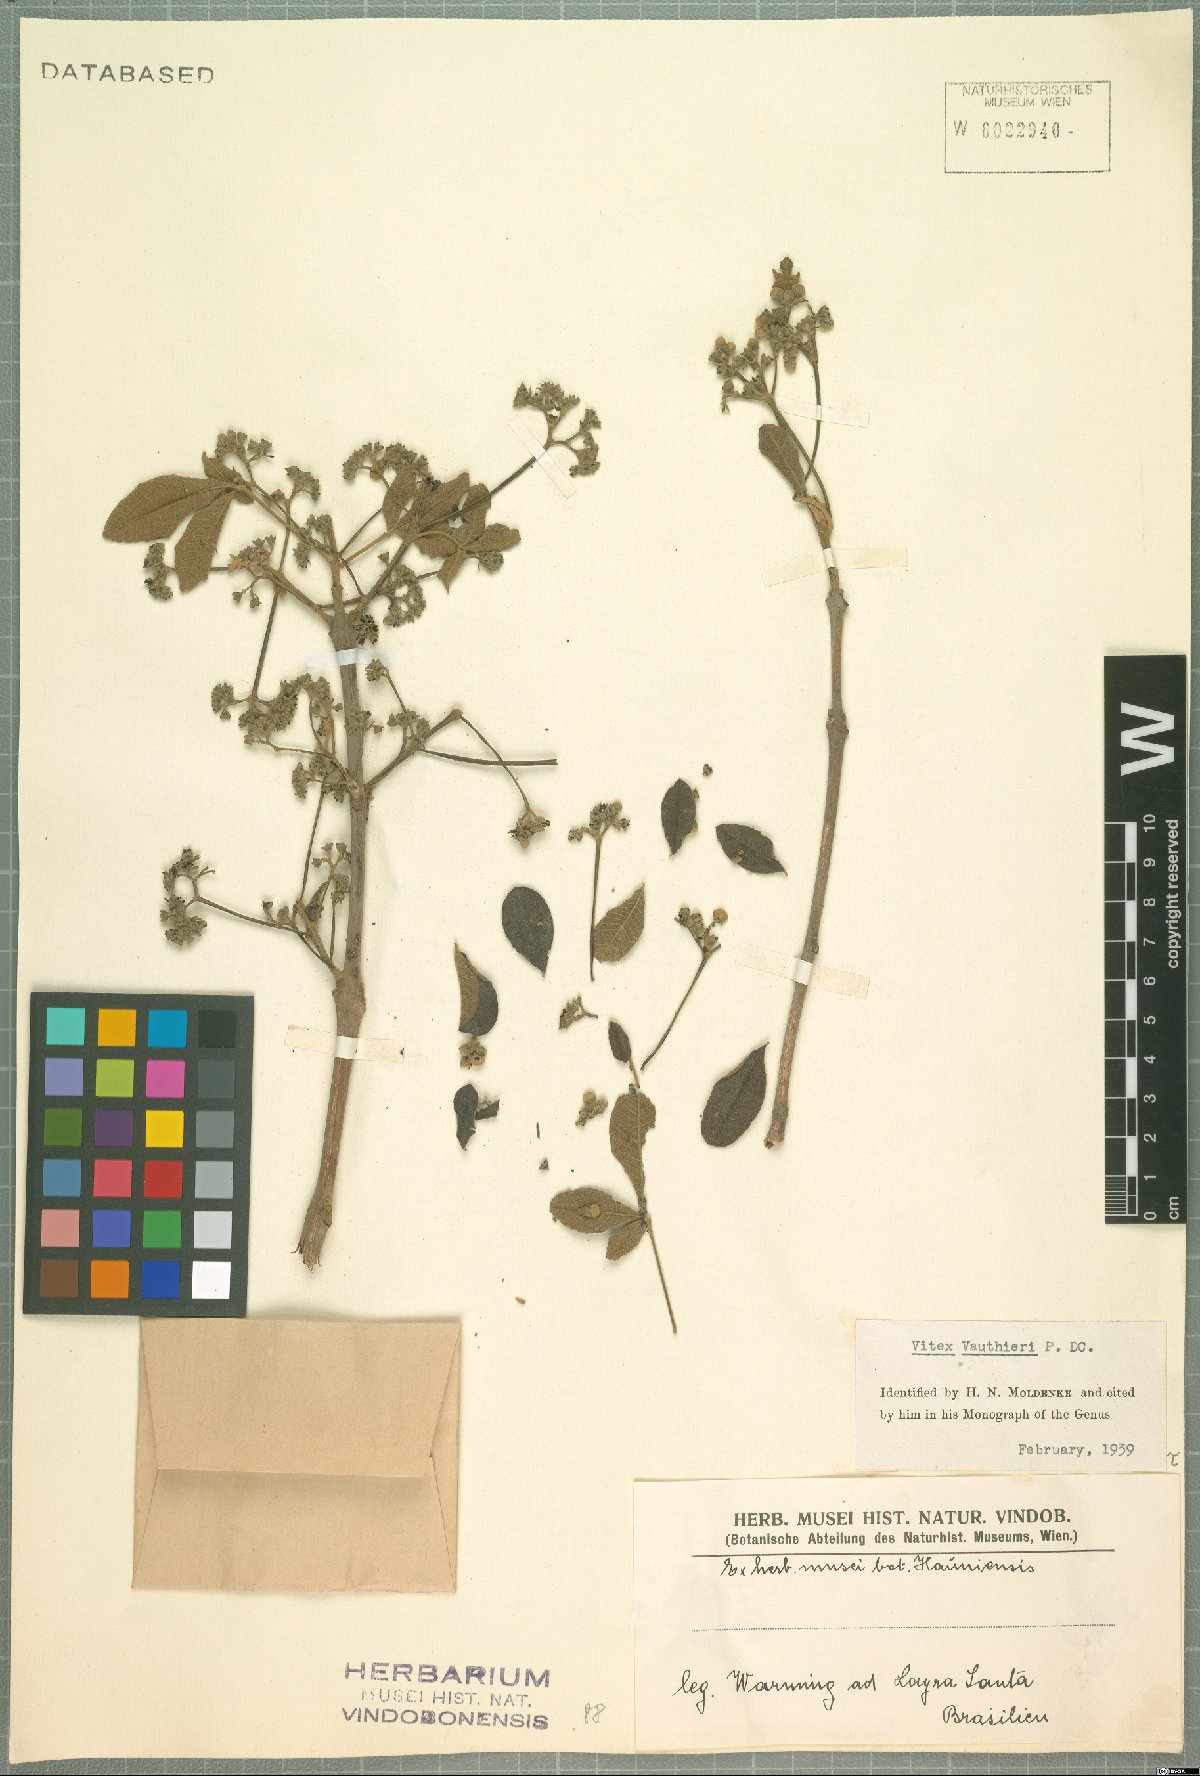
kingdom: Plantae
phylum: Tracheophyta
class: Magnoliopsida
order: Lamiales
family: Verbenaceae
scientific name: Verbenaceae
